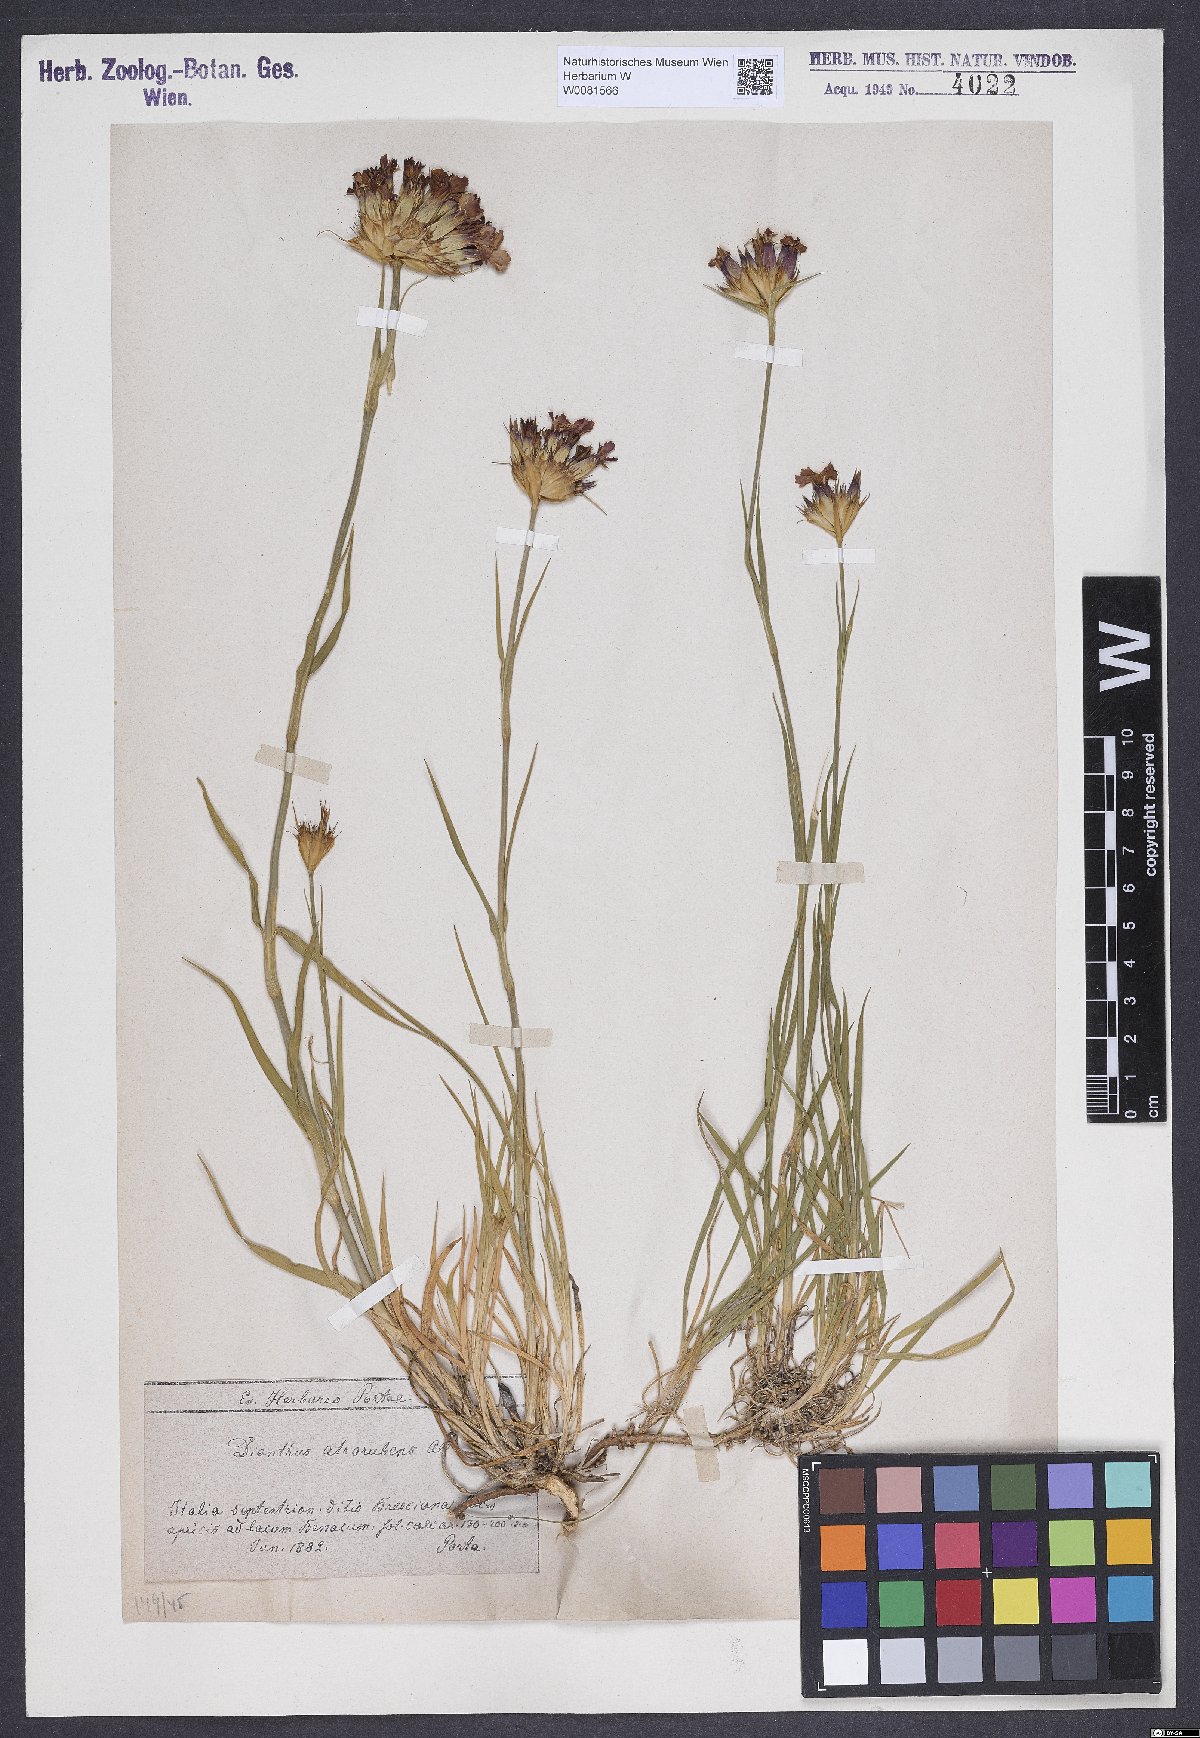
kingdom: Plantae
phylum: Tracheophyta
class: Magnoliopsida
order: Caryophyllales
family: Caryophyllaceae
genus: Dianthus
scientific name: Dianthus carthusianorum
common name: Carthusian pink
